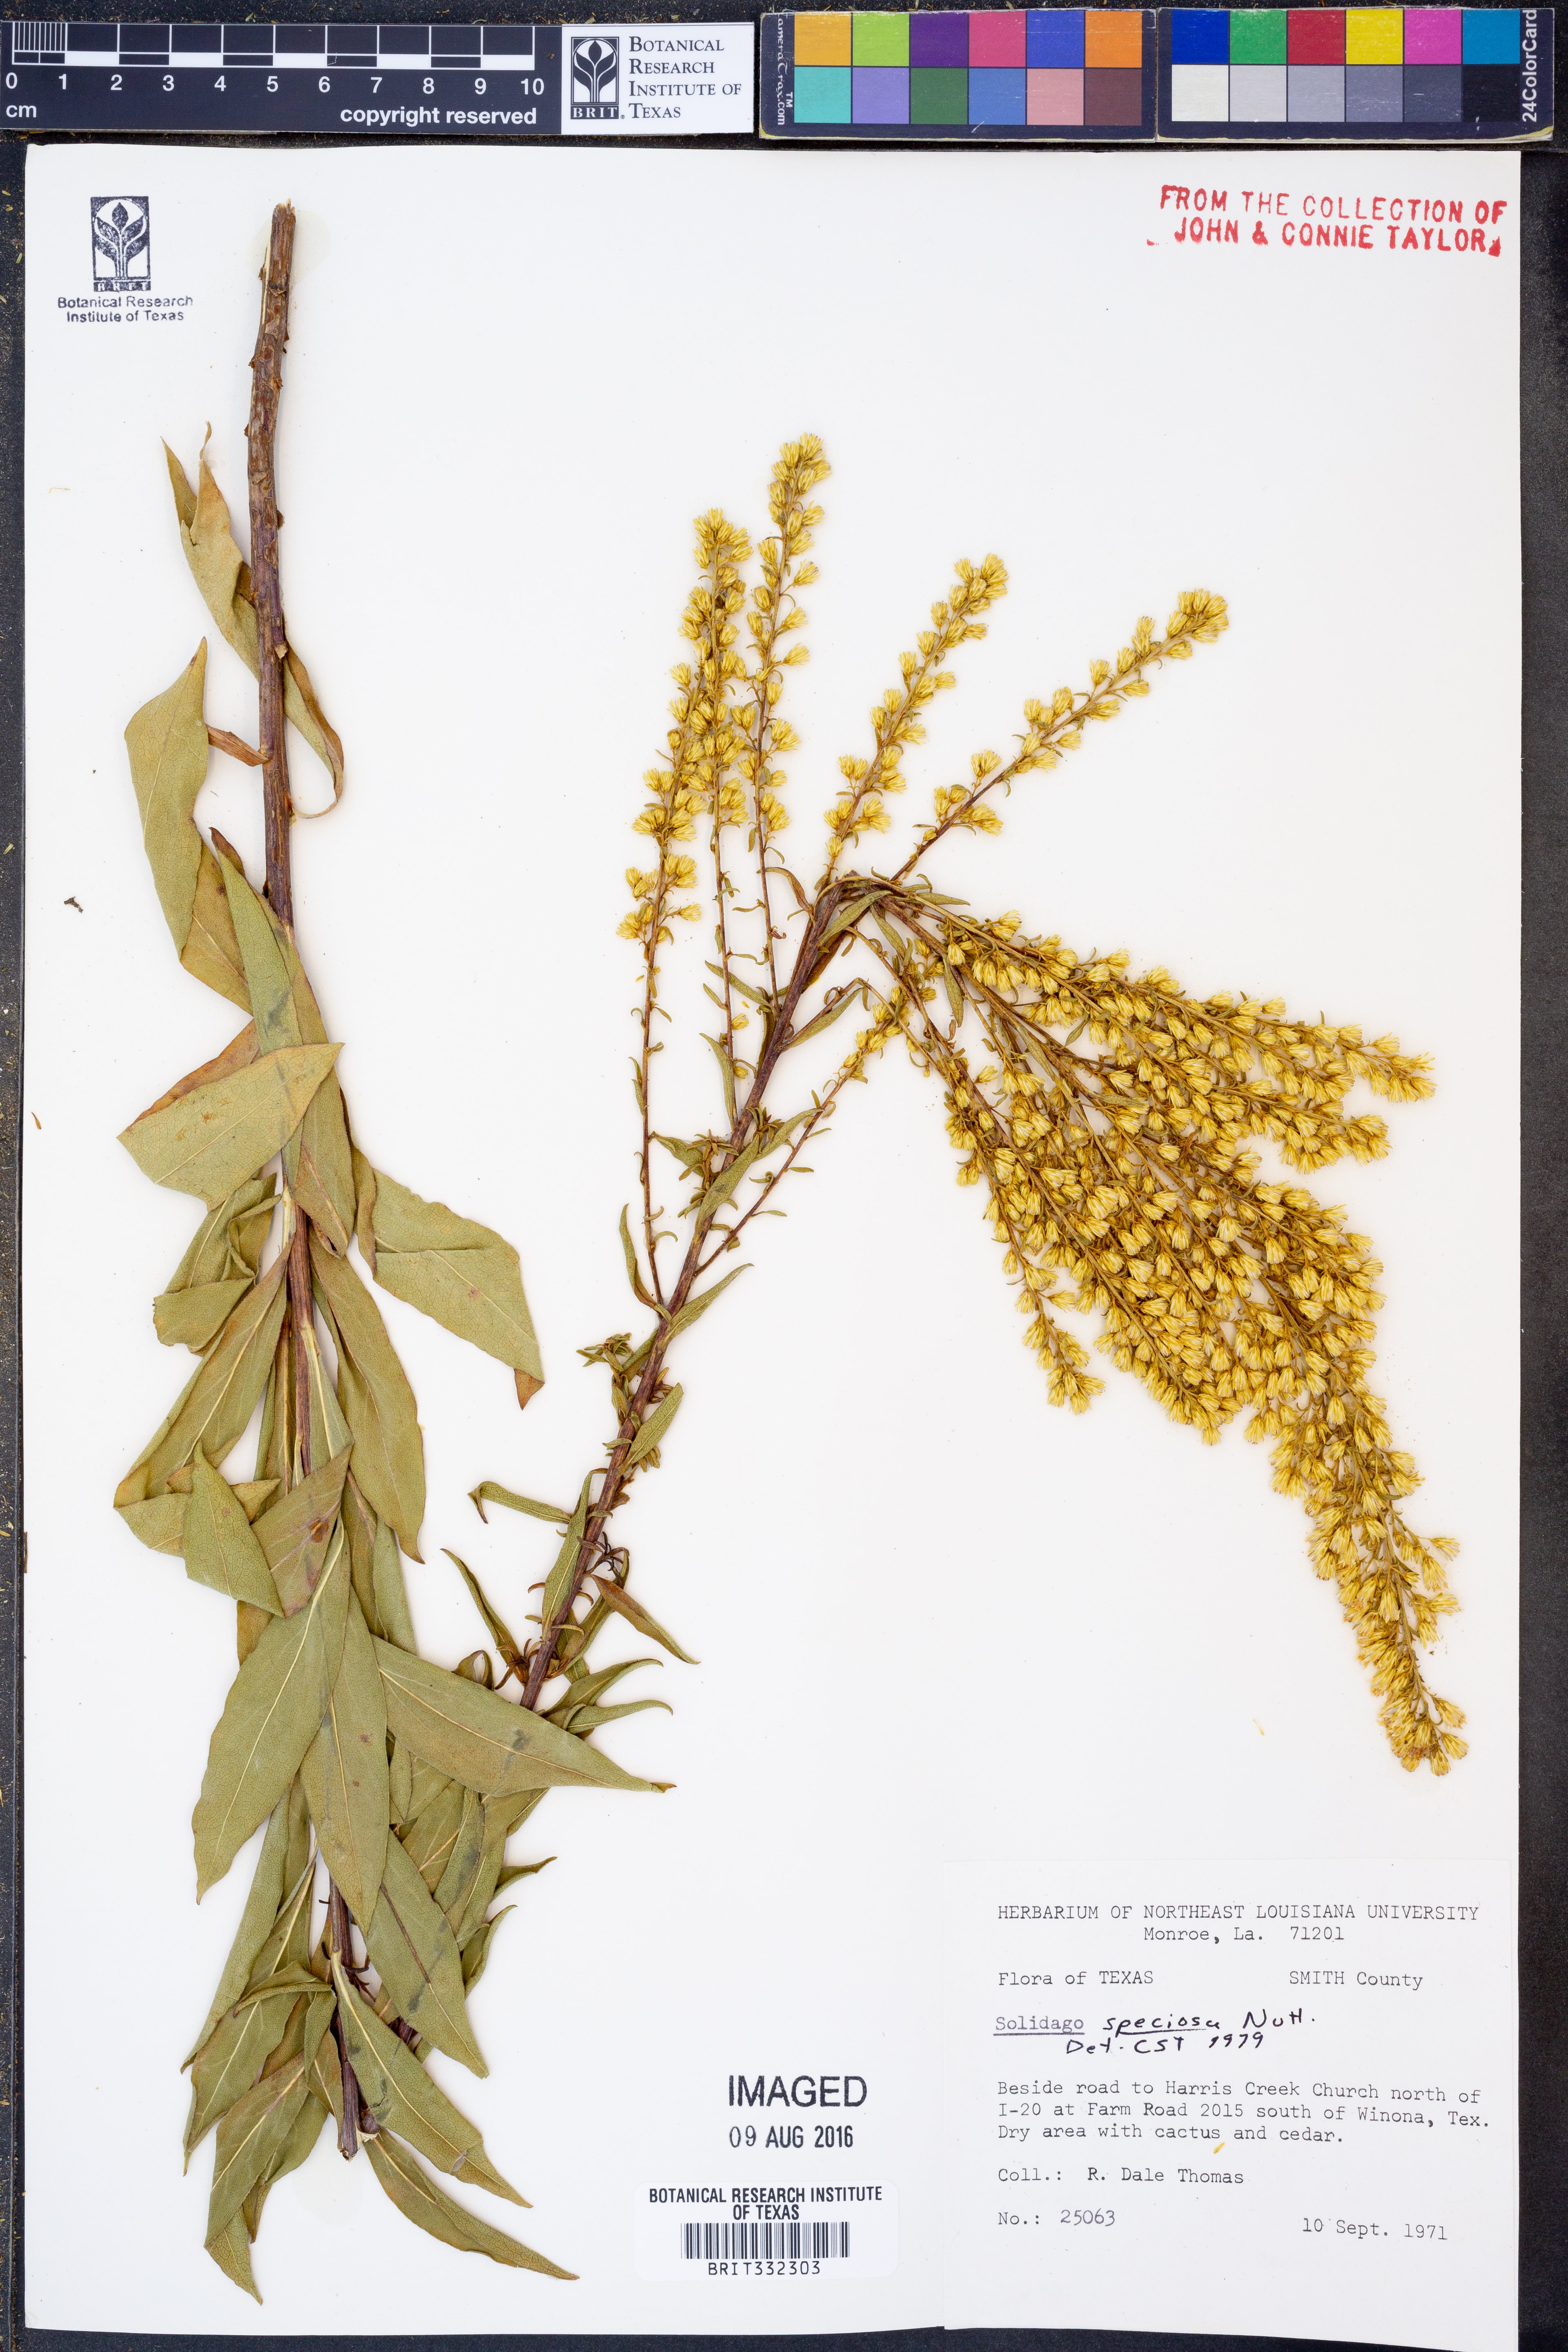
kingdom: Plantae
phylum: Tracheophyta
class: Magnoliopsida
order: Asterales
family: Asteraceae
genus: Solidago
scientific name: Solidago speciosa
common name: Showy goldenrod
